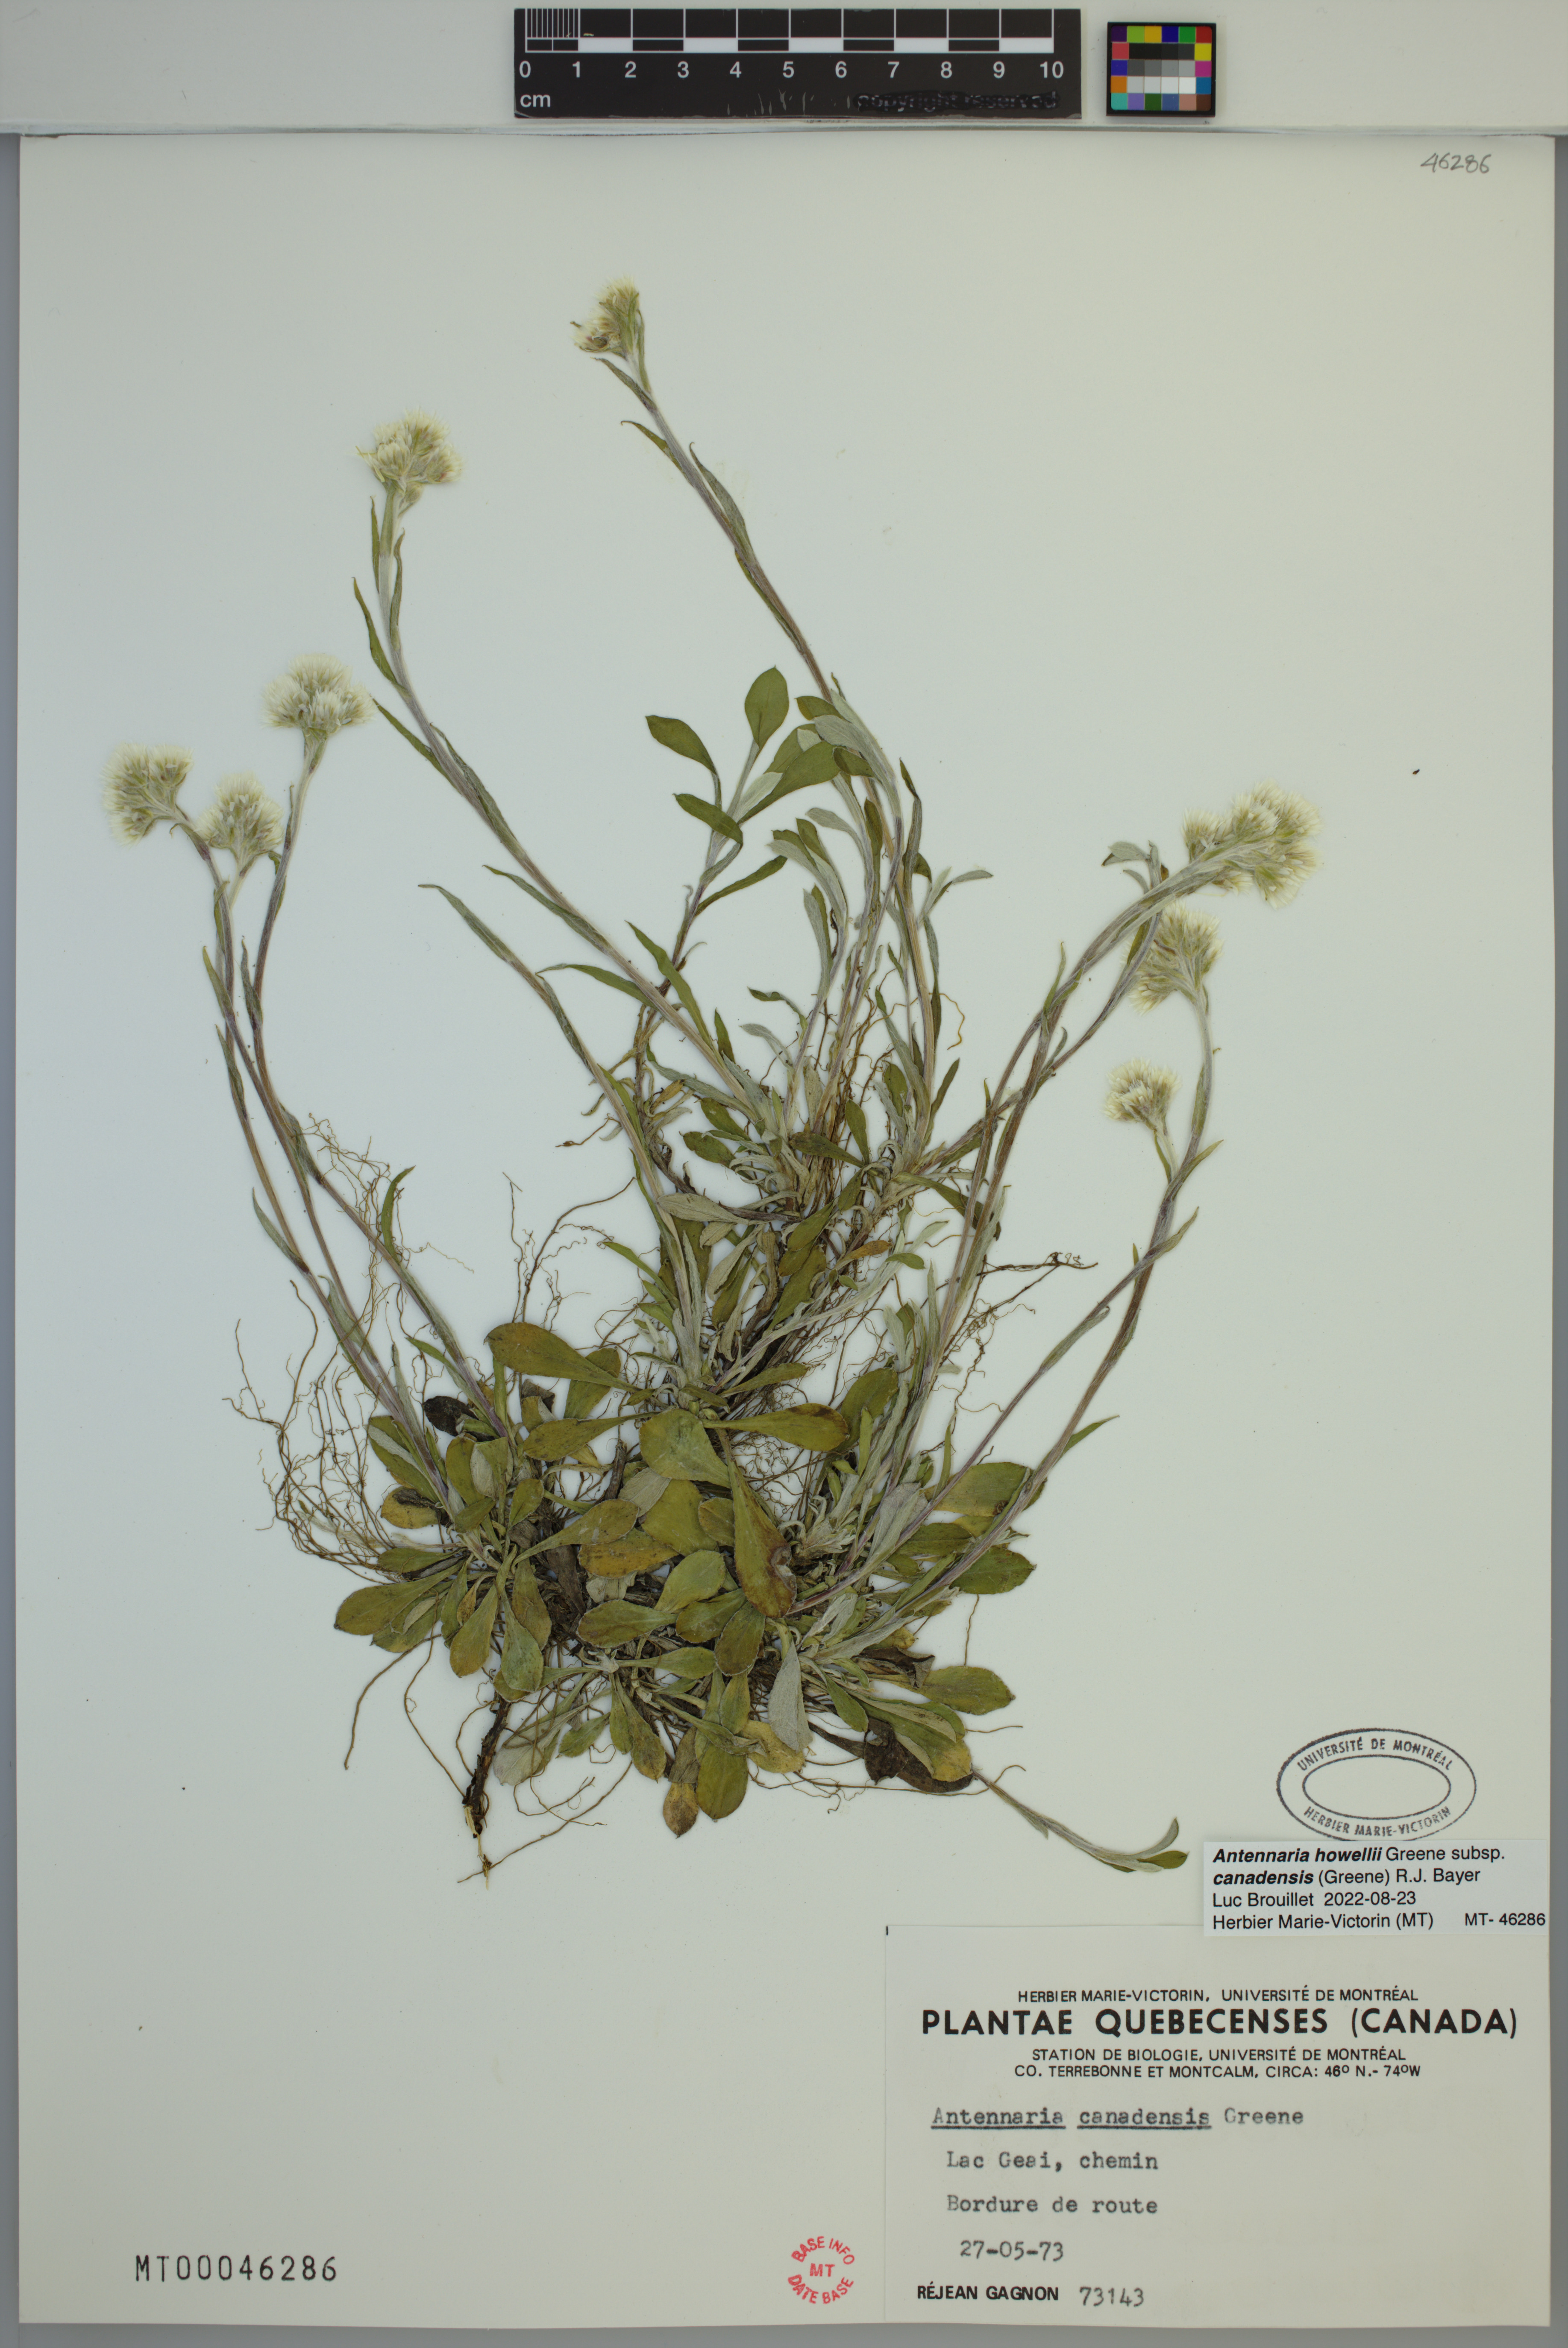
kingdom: Plantae
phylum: Tracheophyta
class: Magnoliopsida
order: Asterales
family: Asteraceae
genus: Antennaria
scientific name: Antennaria howellii
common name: Howell's pussytoes
